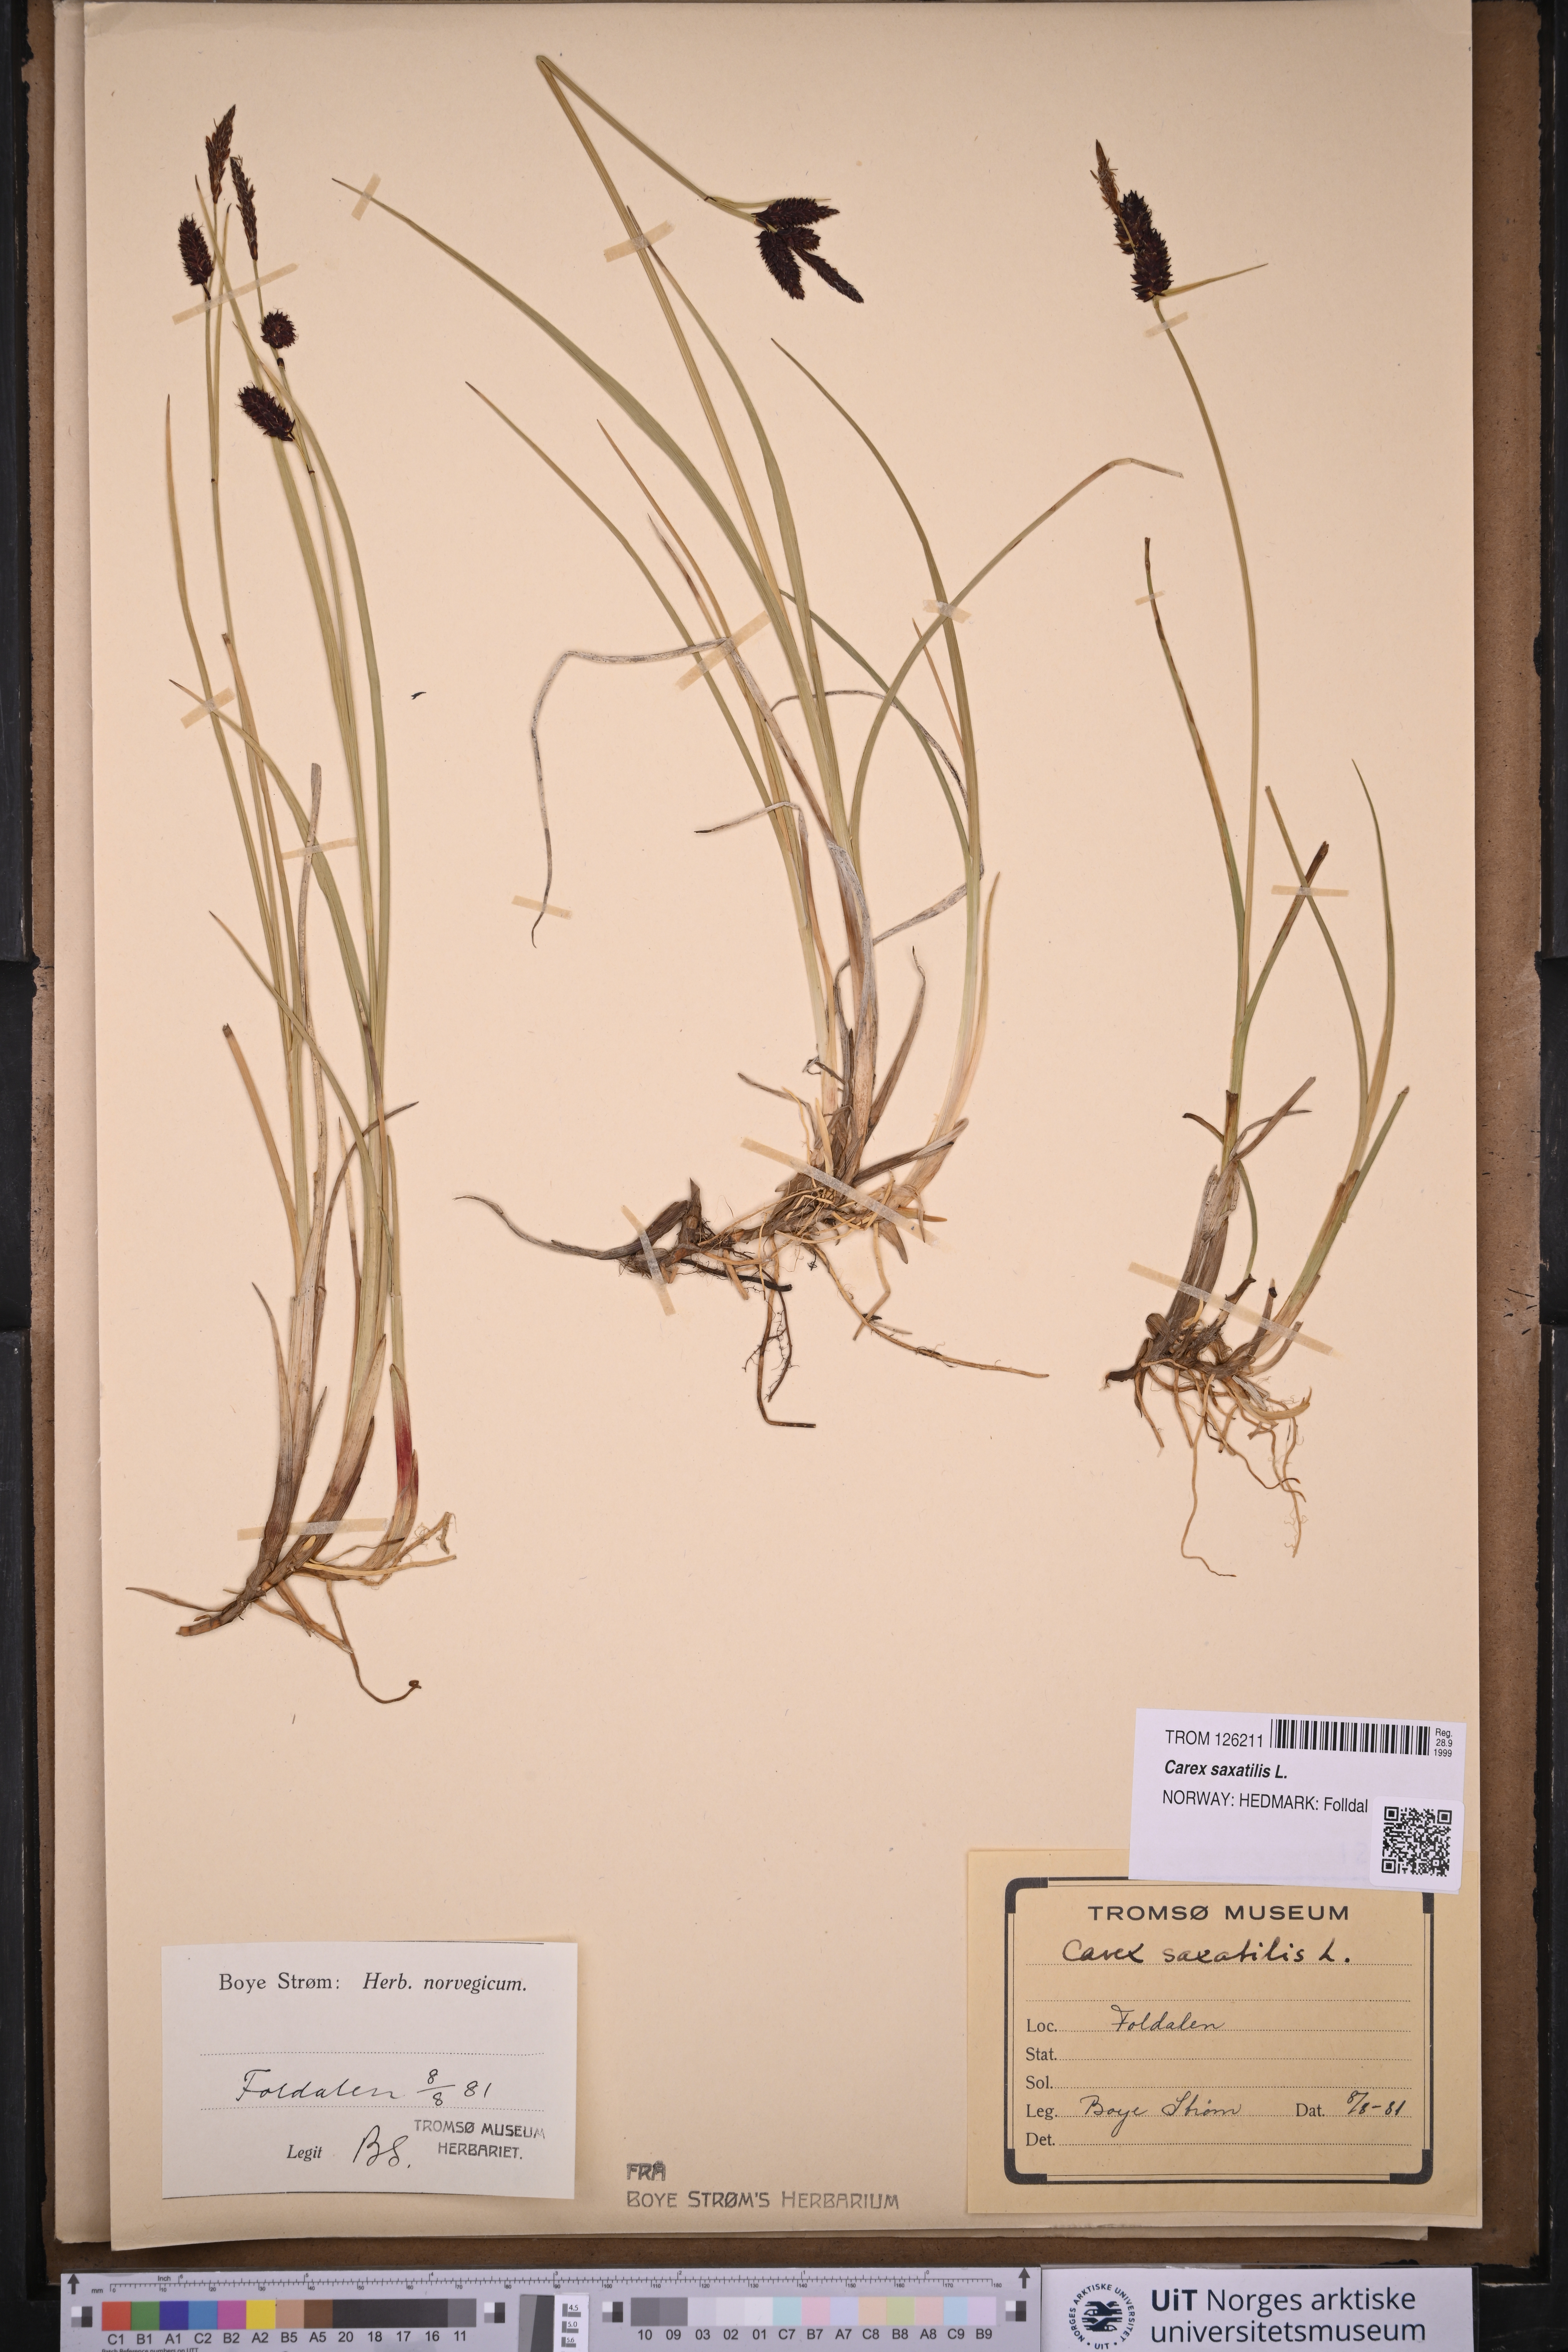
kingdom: Plantae
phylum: Tracheophyta
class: Liliopsida
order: Poales
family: Cyperaceae
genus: Carex
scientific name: Carex saxatilis
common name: Russet sedge
